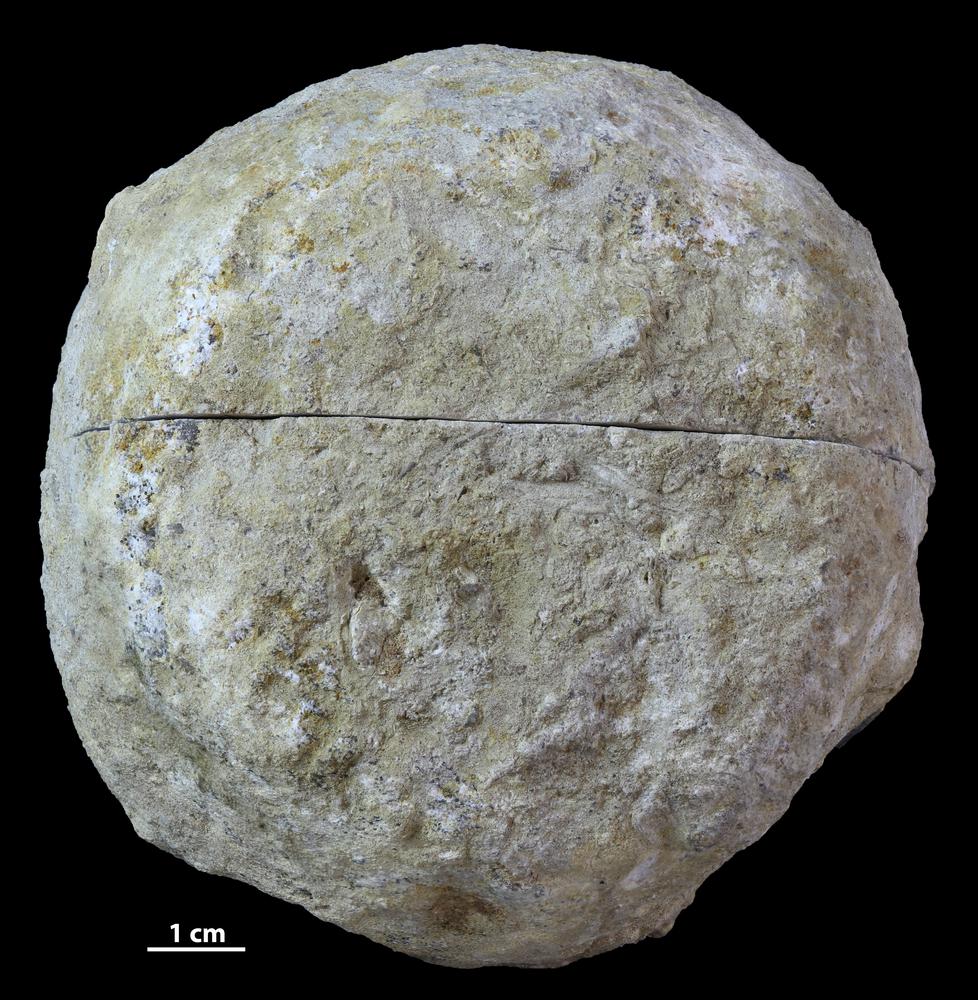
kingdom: Animalia
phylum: Bryozoa
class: Stenolaemata
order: Trepostomatida
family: Diplotrypidae
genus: Diplotrypa
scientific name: Diplotrypa
